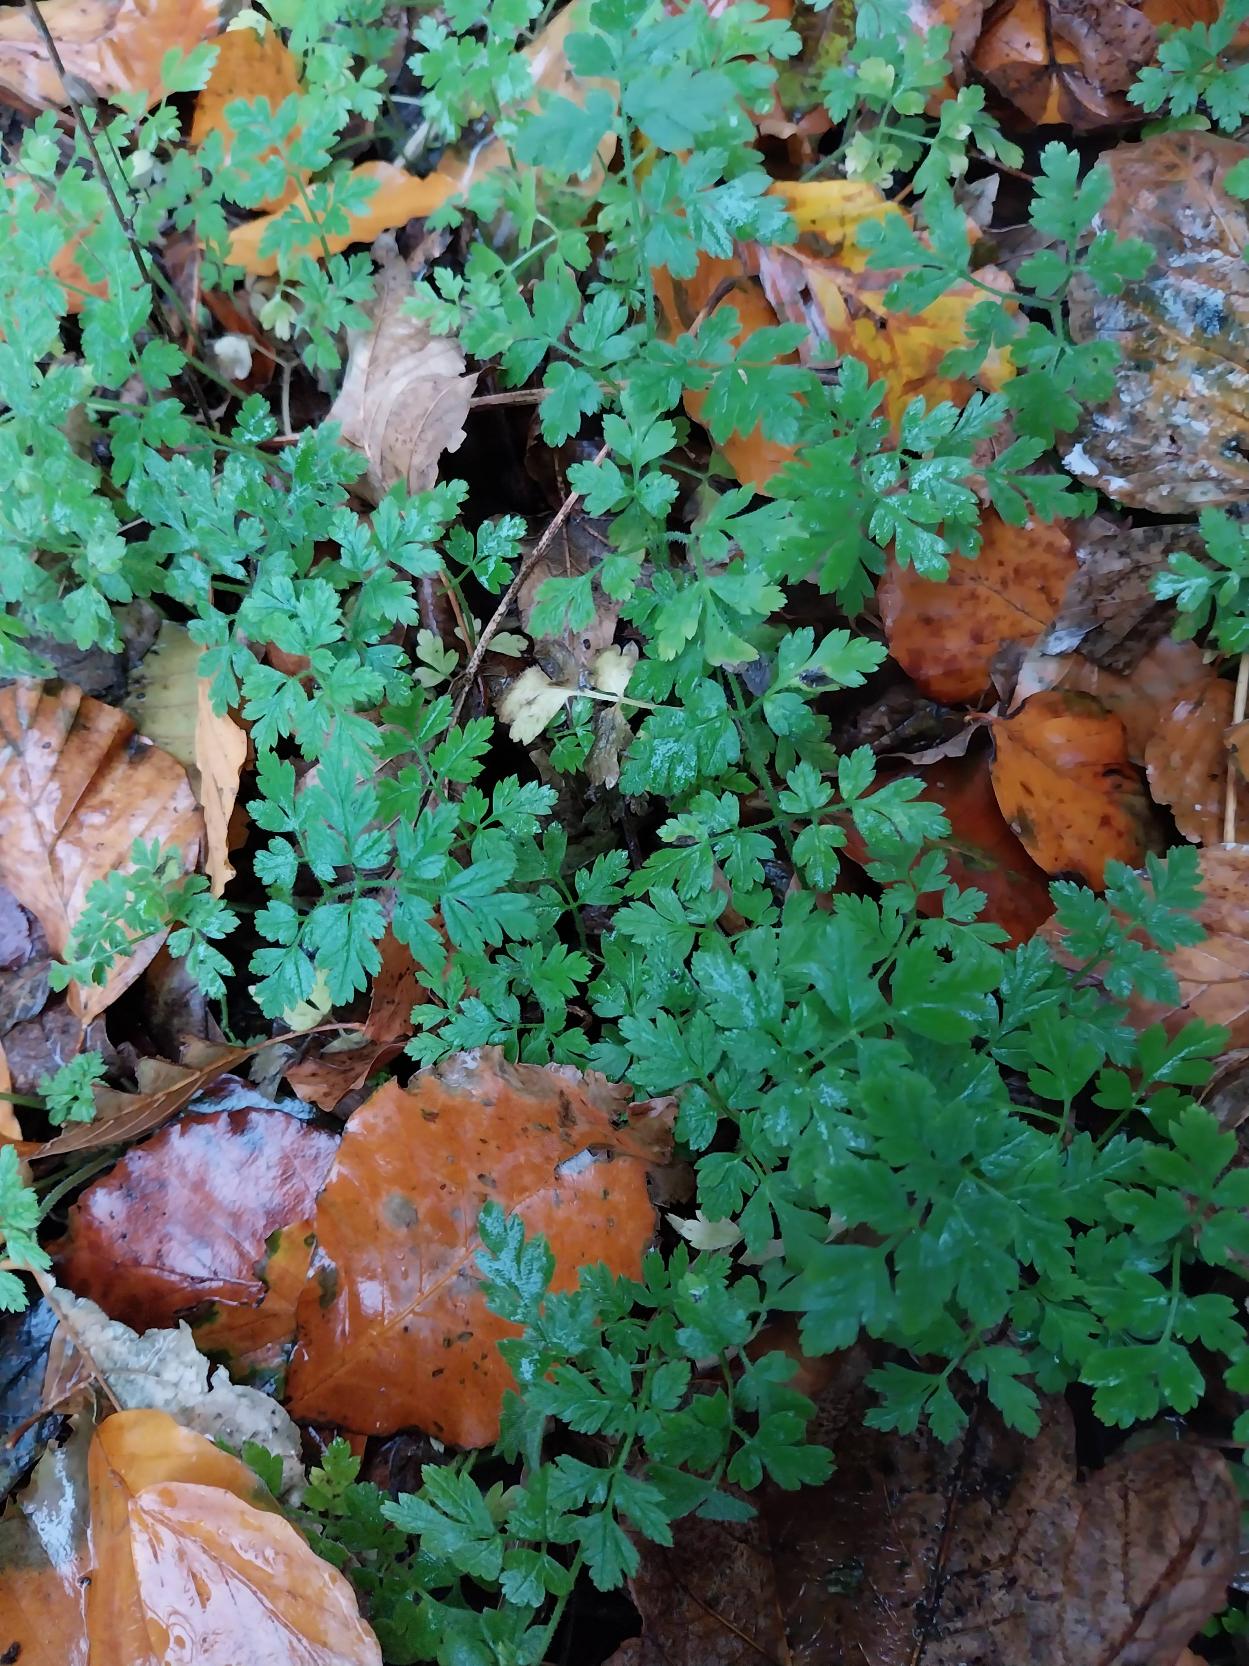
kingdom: Plantae
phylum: Tracheophyta
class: Magnoliopsida
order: Apiales
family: Apiaceae
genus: Chaerophyllum
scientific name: Chaerophyllum temulum
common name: Almindelig hulsvøb
